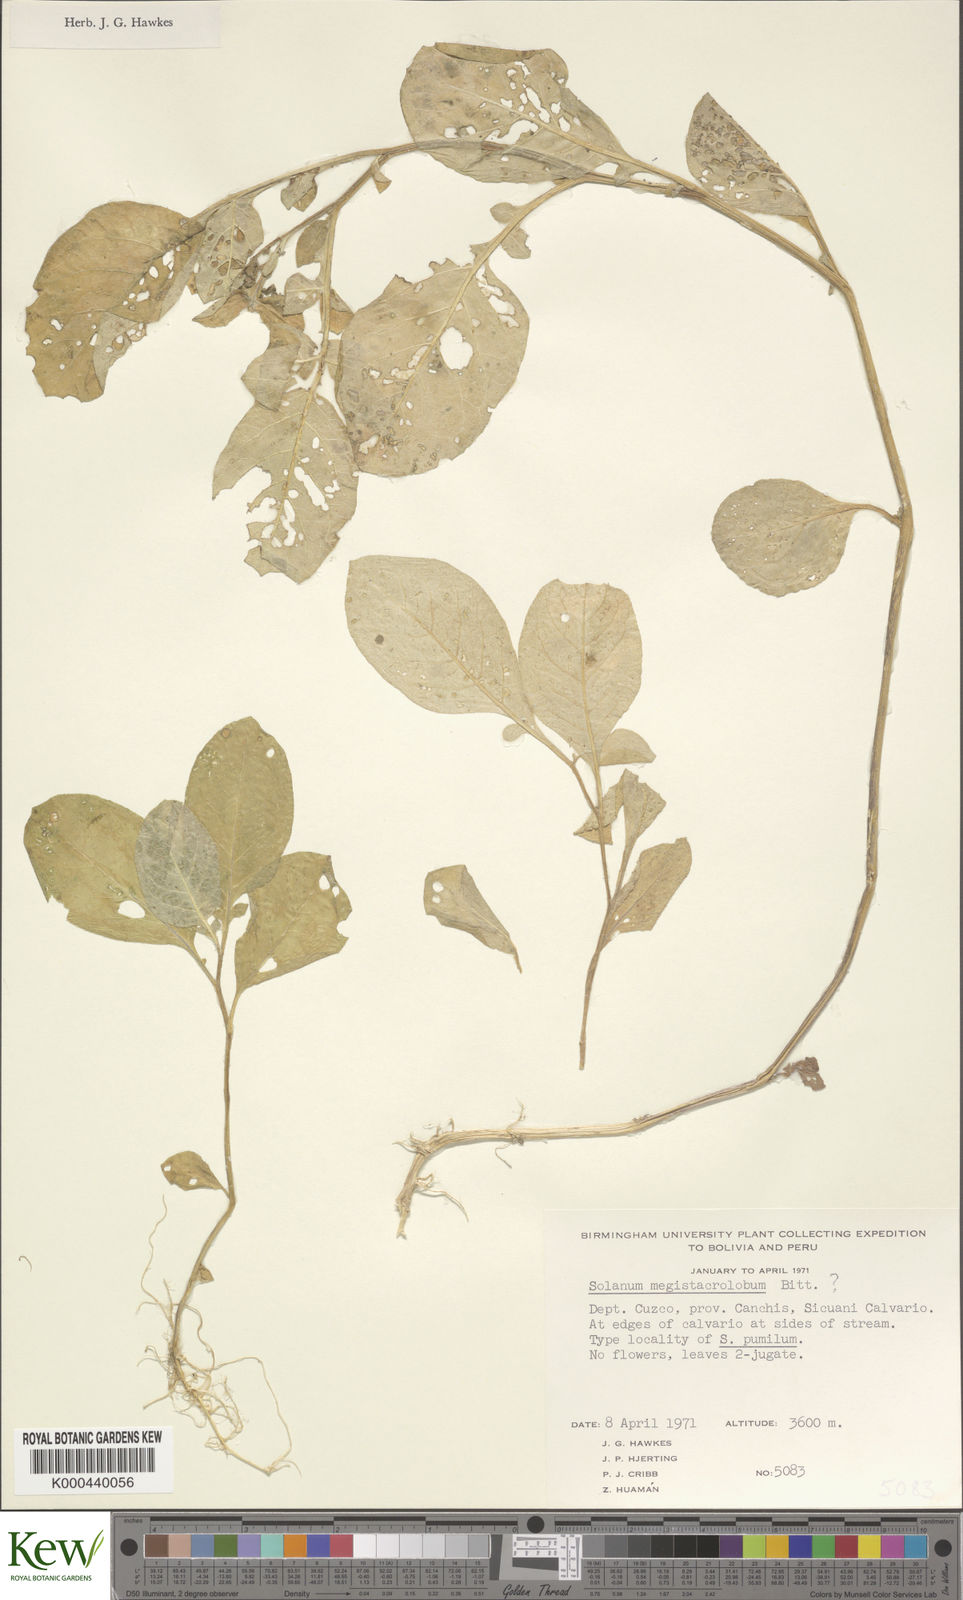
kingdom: Plantae
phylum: Tracheophyta
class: Magnoliopsida
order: Solanales
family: Solanaceae
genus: Solanum
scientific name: Solanum boliviense
